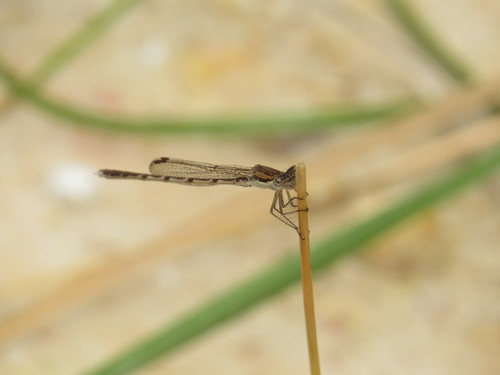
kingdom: Animalia
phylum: Arthropoda
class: Insecta
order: Odonata
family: Lestidae
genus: Sympecma
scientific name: Sympecma fusca
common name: Common winter damsel
